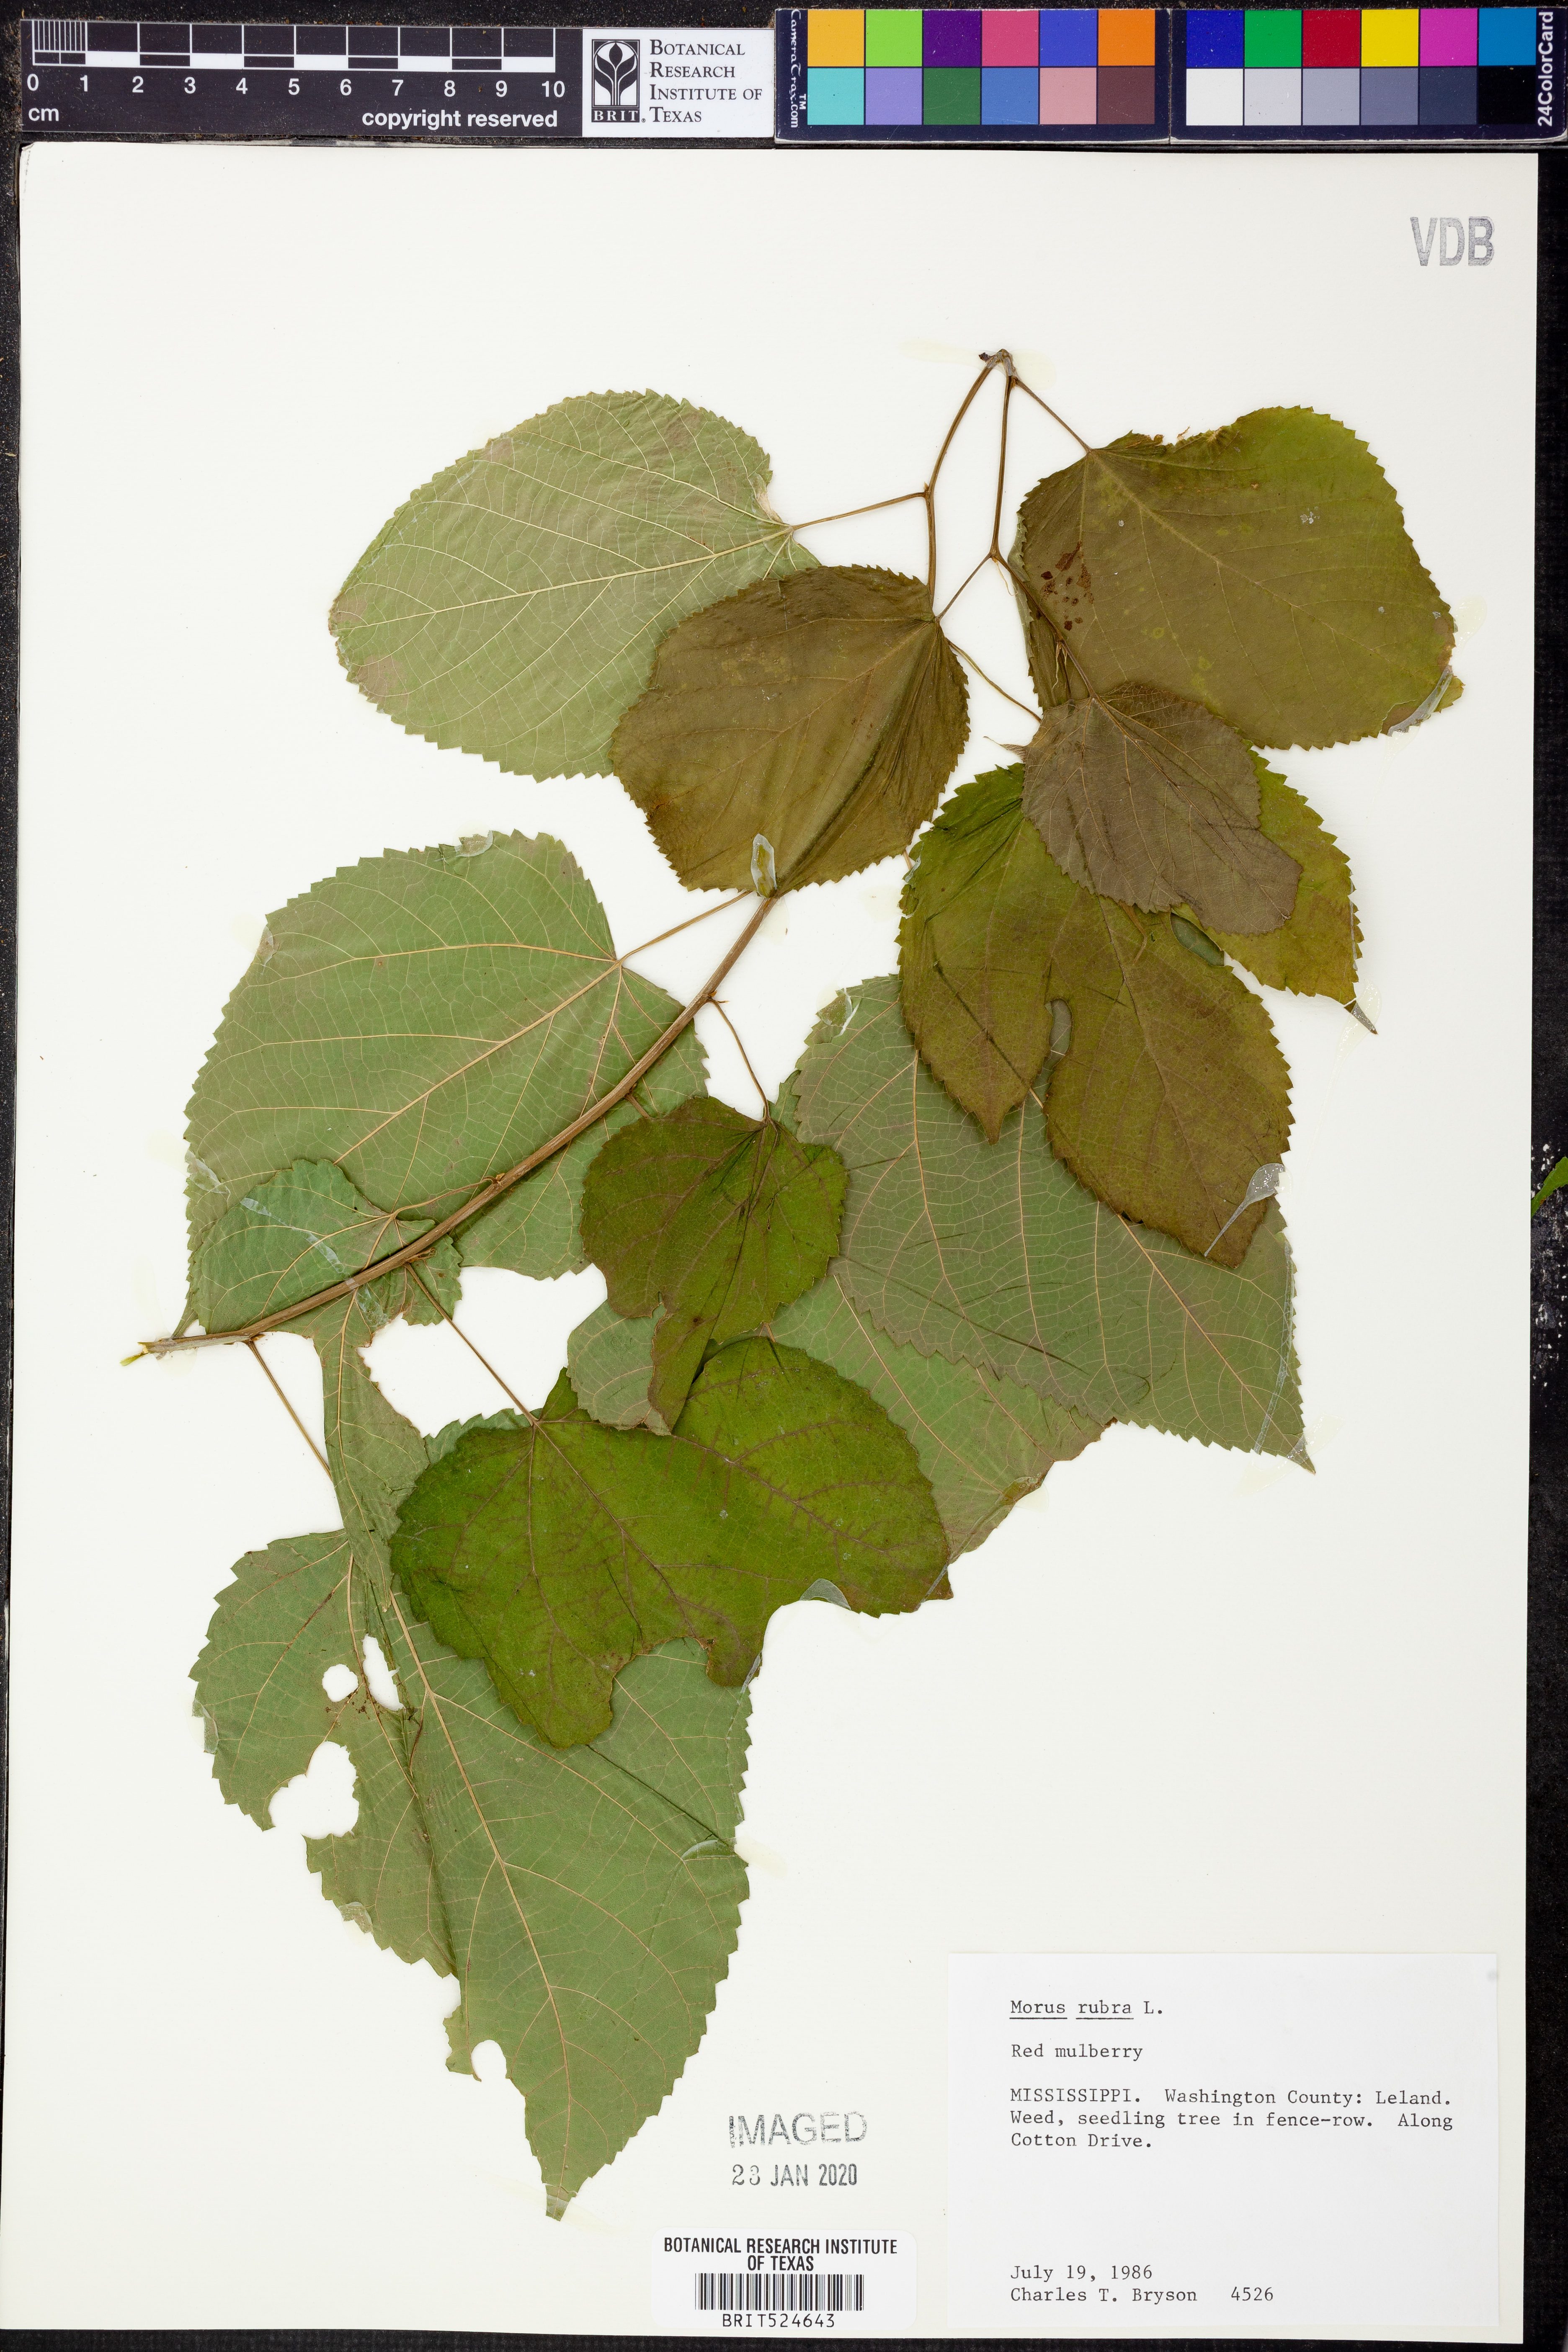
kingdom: Plantae
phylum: Tracheophyta
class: Magnoliopsida
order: Rosales
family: Moraceae
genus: Morus
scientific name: Morus rubra
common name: Red mulberry
